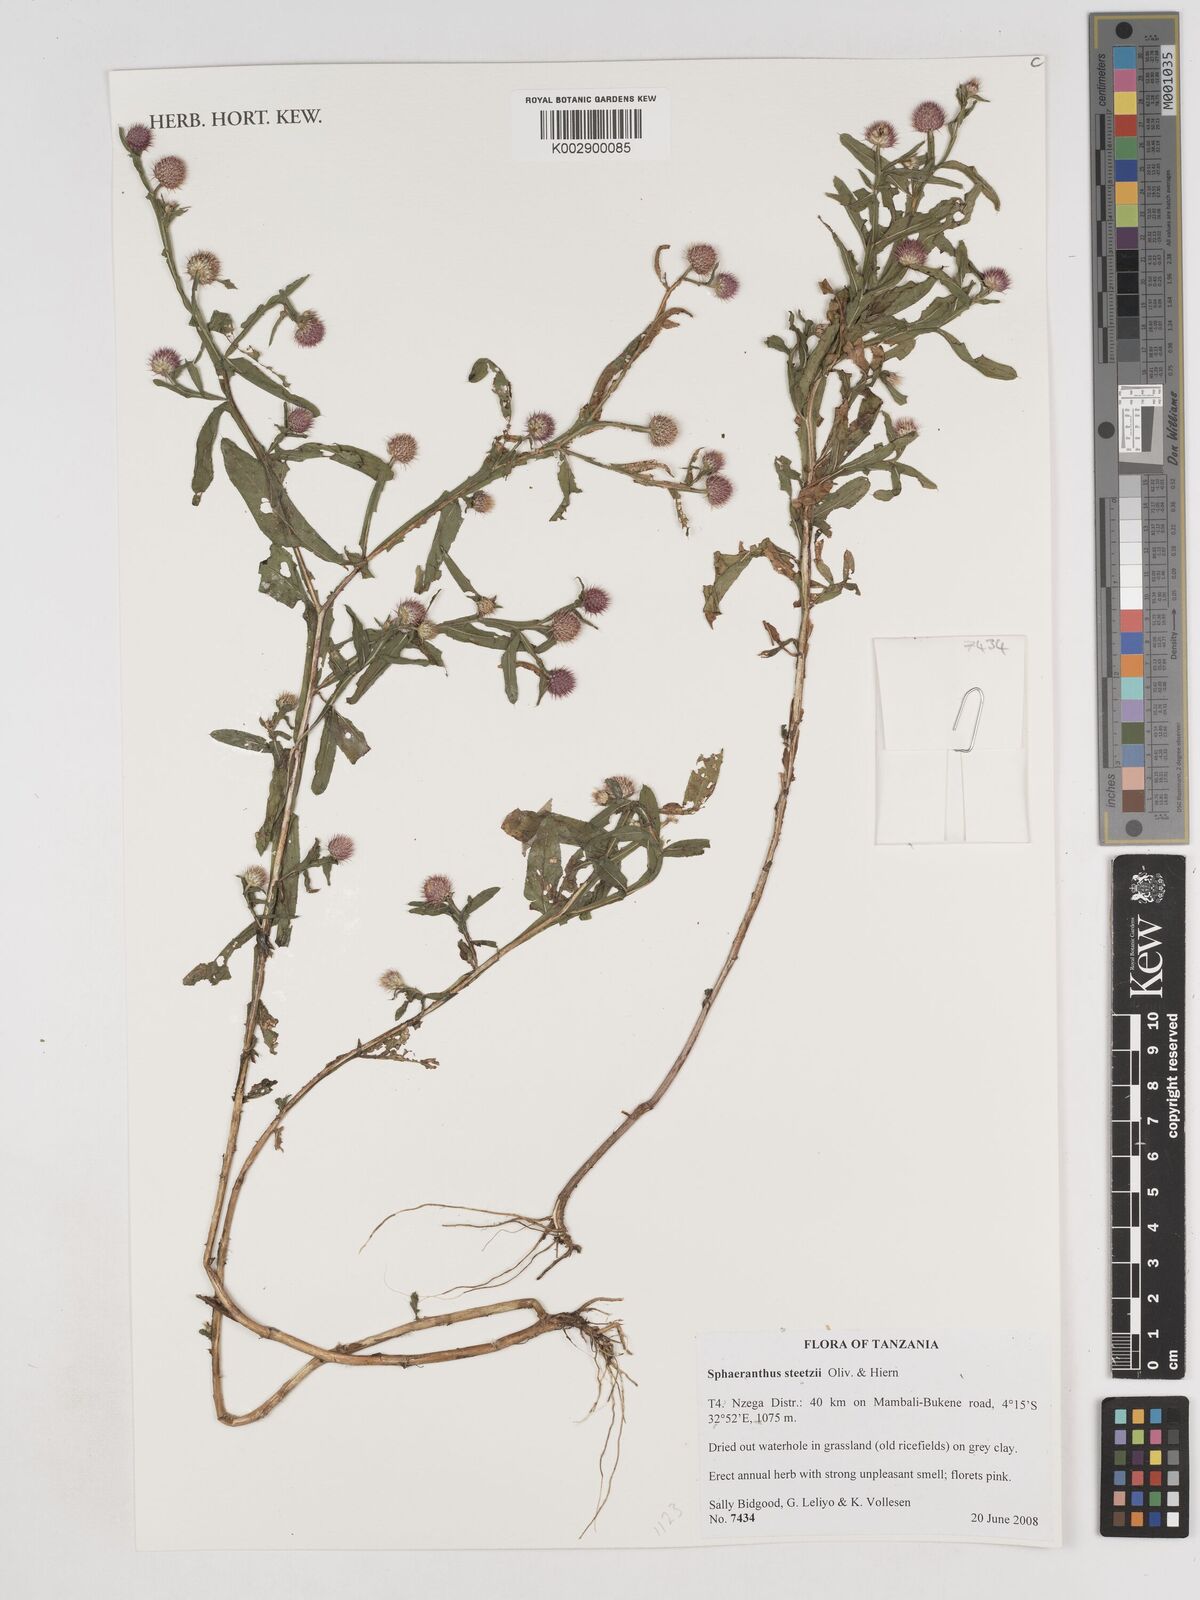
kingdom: Plantae
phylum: Tracheophyta
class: Magnoliopsida
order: Asterales
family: Asteraceae
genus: Sphaeranthus
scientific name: Sphaeranthus steetzii
